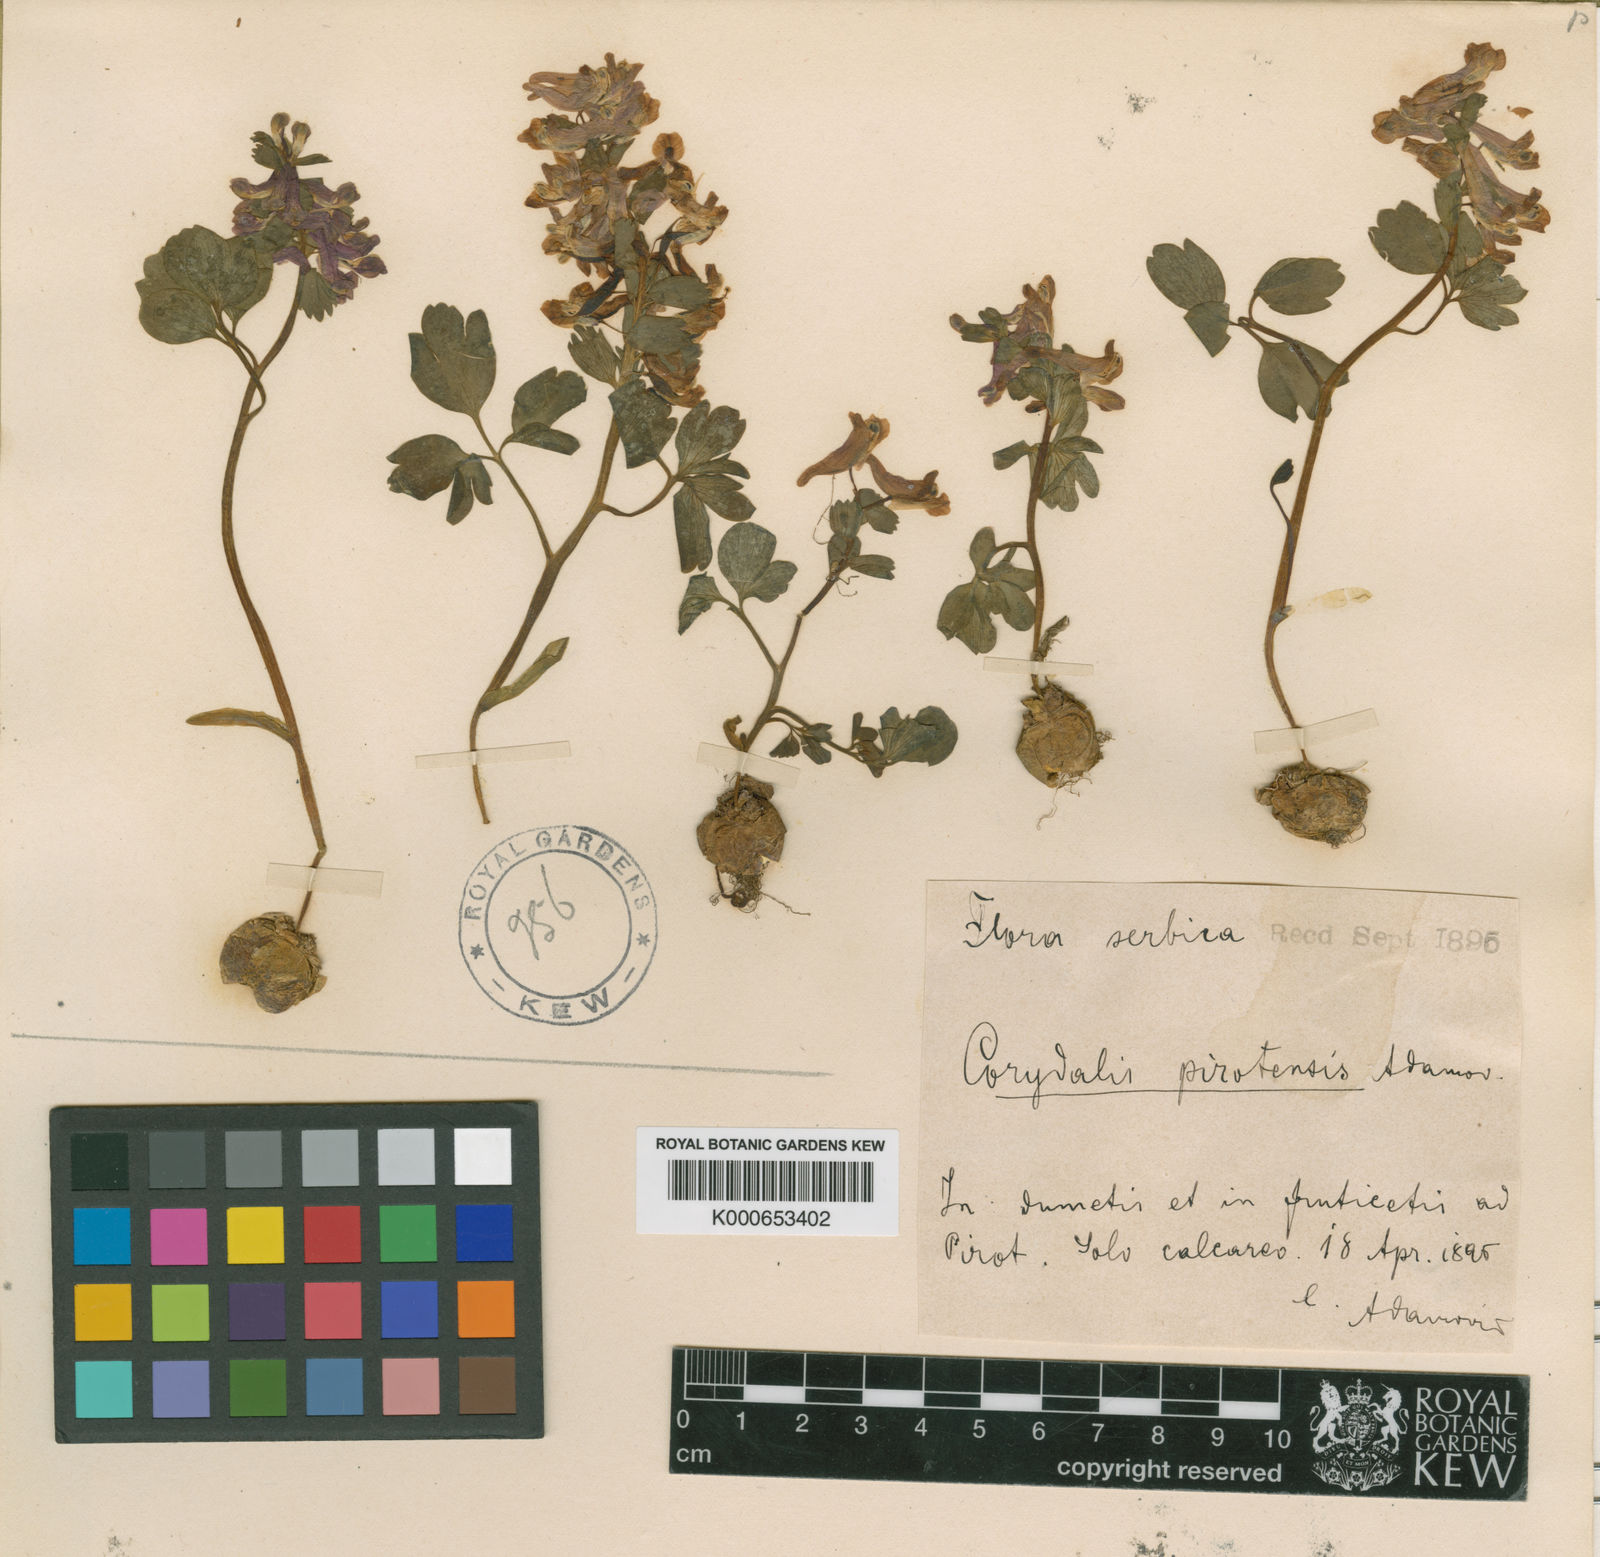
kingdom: Plantae
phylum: Tracheophyta
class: Magnoliopsida
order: Ranunculales
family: Papaveraceae
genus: Corydalis
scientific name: Corydalis solida
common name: Bird-in-a-bush
